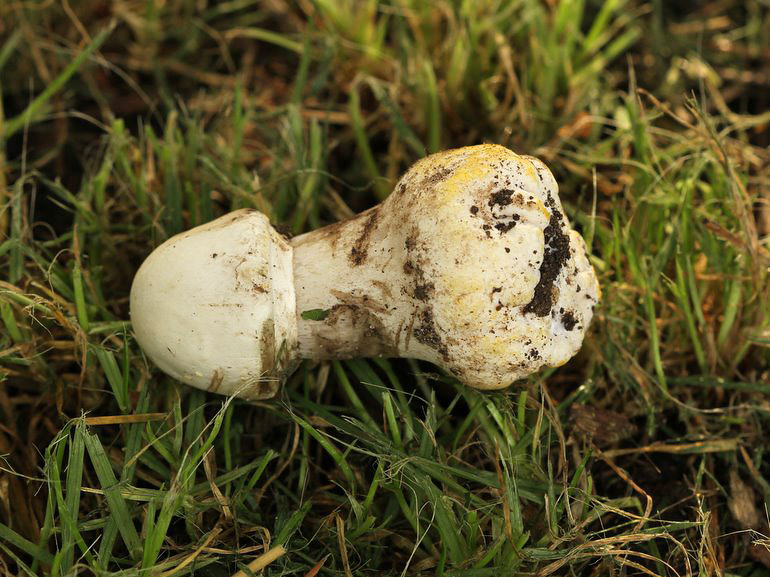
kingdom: Fungi
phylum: Basidiomycota
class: Agaricomycetes
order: Agaricales
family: Agaricaceae
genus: Agaricus
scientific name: Agaricus xanthodermus
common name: karbol-champignon
